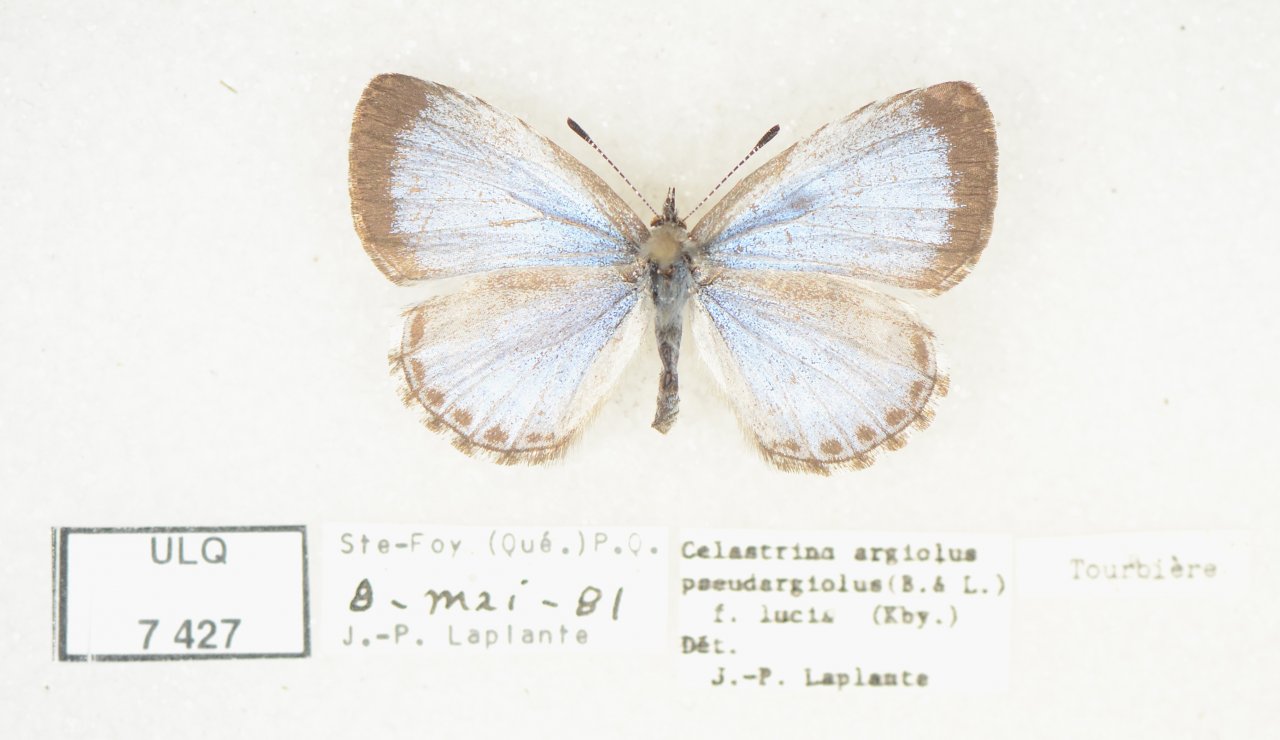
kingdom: Animalia
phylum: Arthropoda
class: Insecta
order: Lepidoptera
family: Lycaenidae
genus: Celastrina
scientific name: Celastrina lucia
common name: Northern Spring Azure
